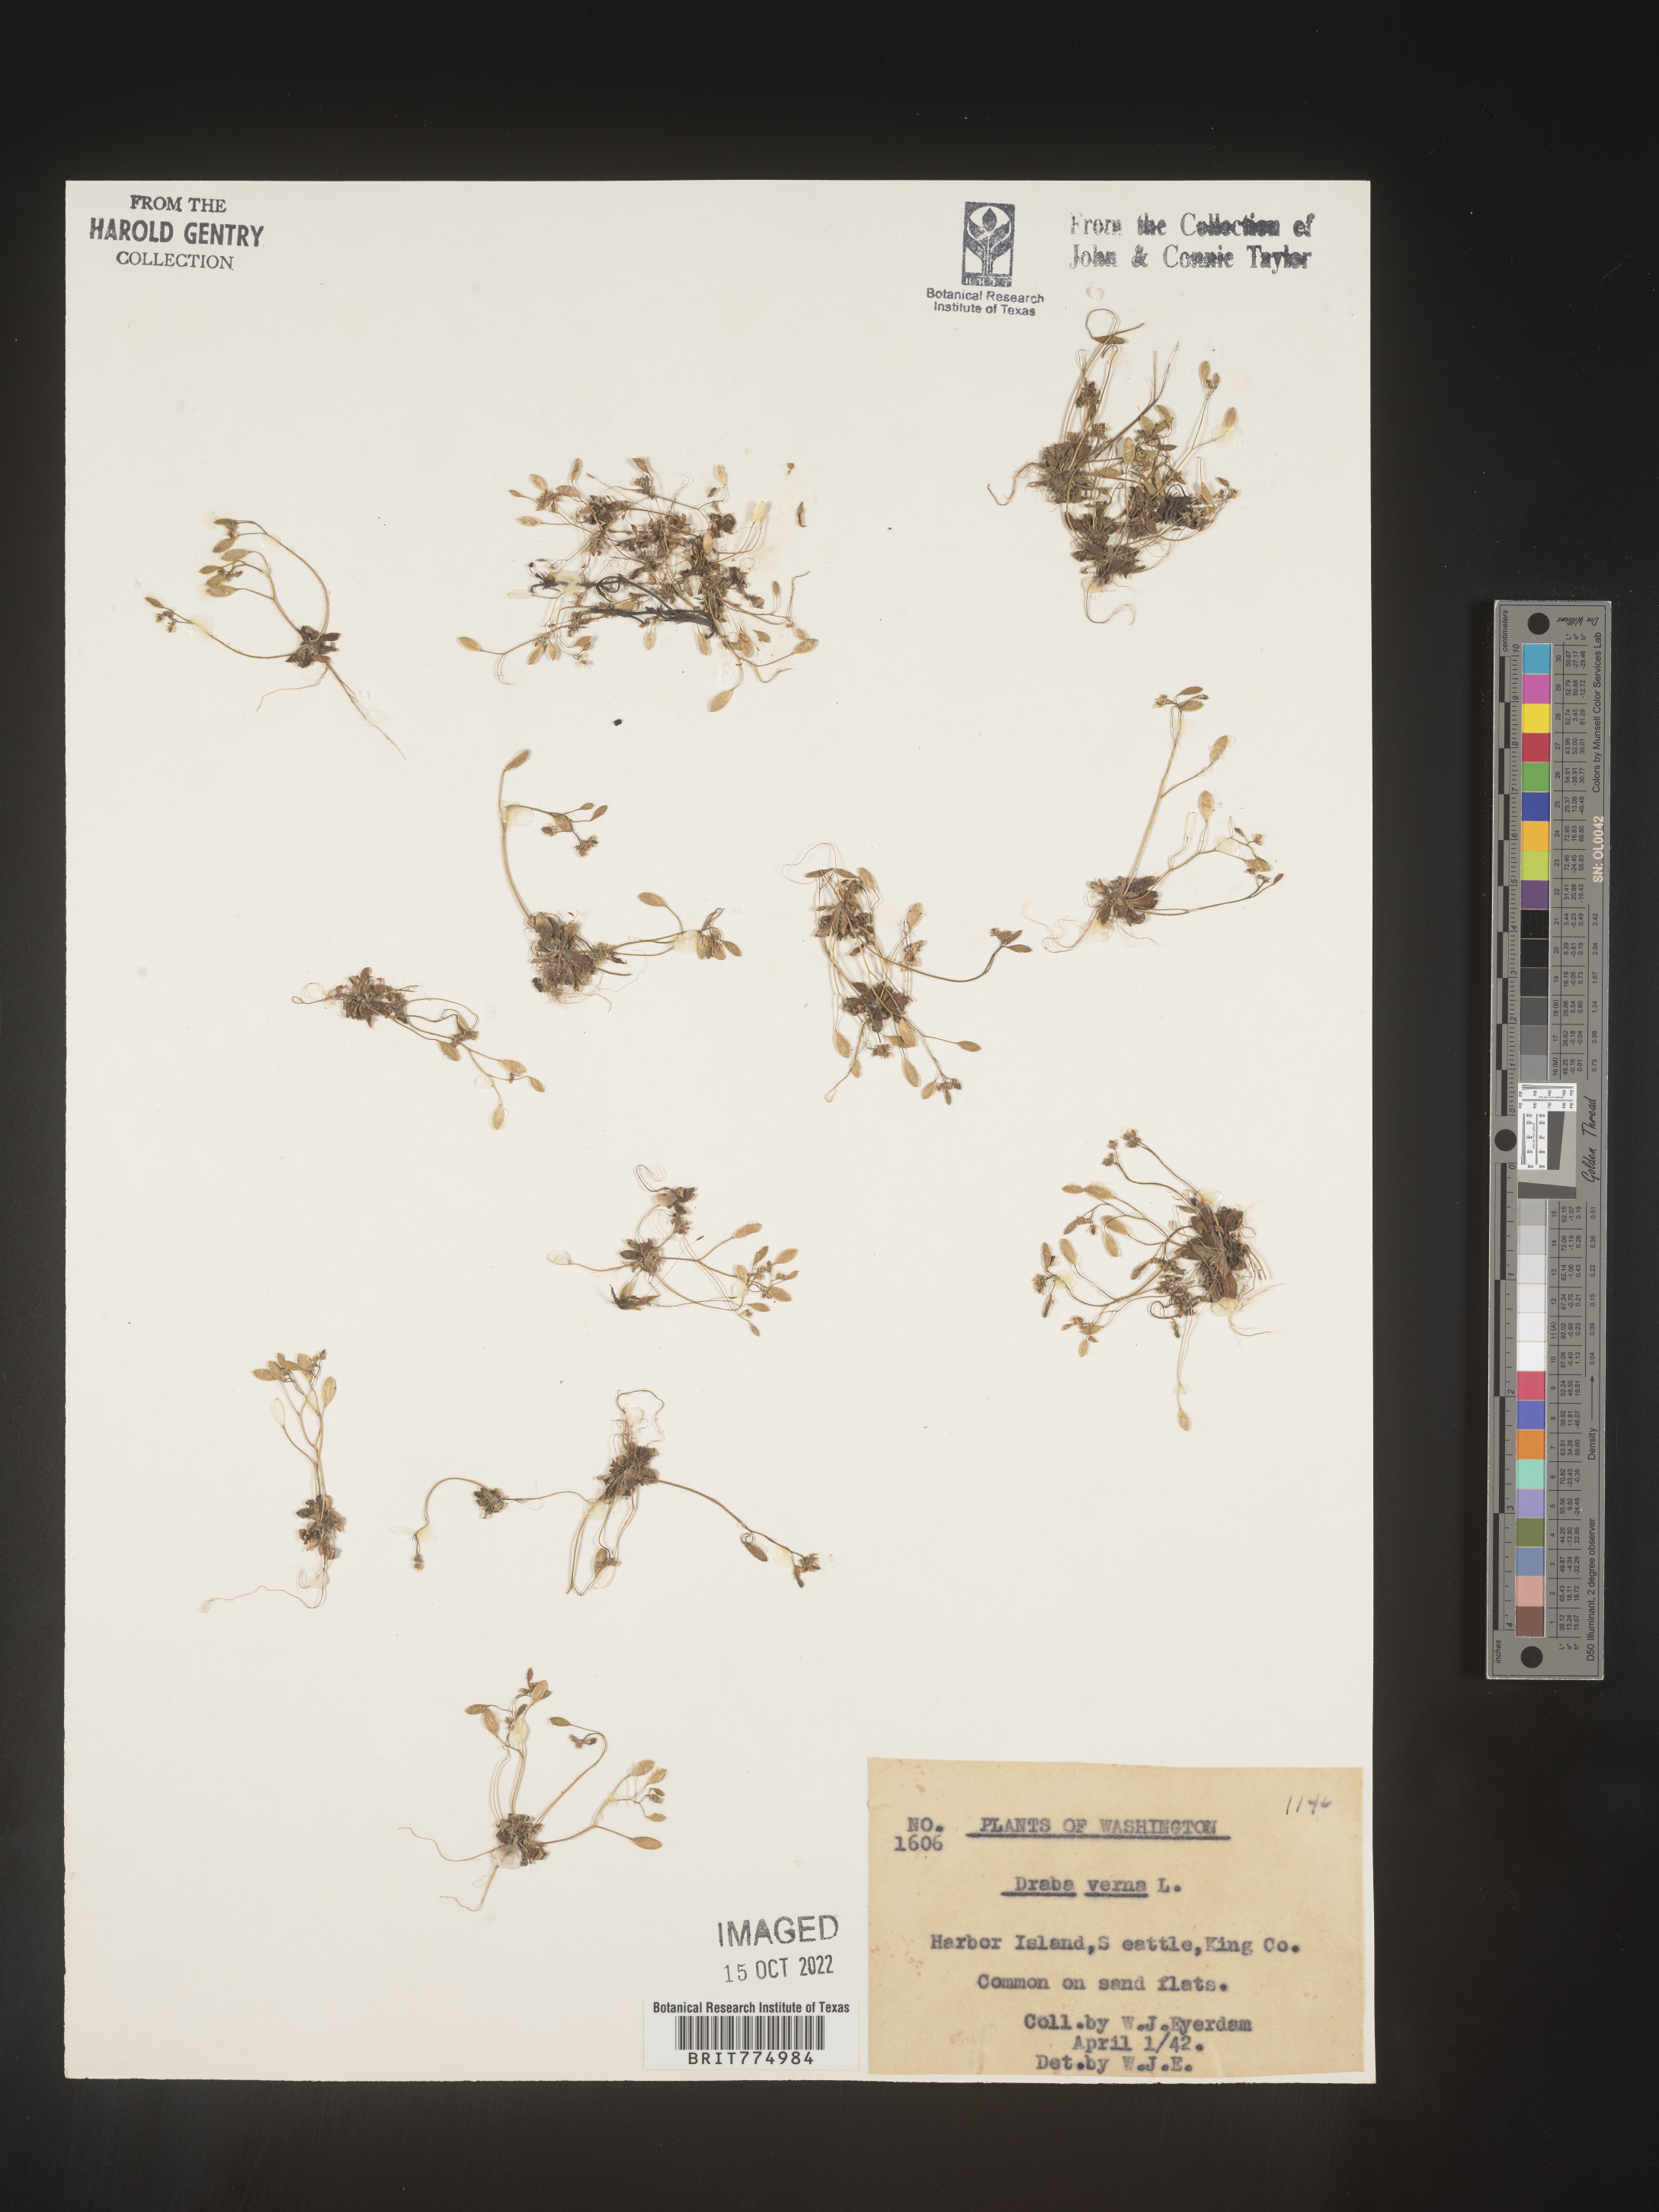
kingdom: Plantae
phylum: Tracheophyta
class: Magnoliopsida
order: Brassicales
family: Brassicaceae
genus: Draba
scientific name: Draba verna
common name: Spring draba
